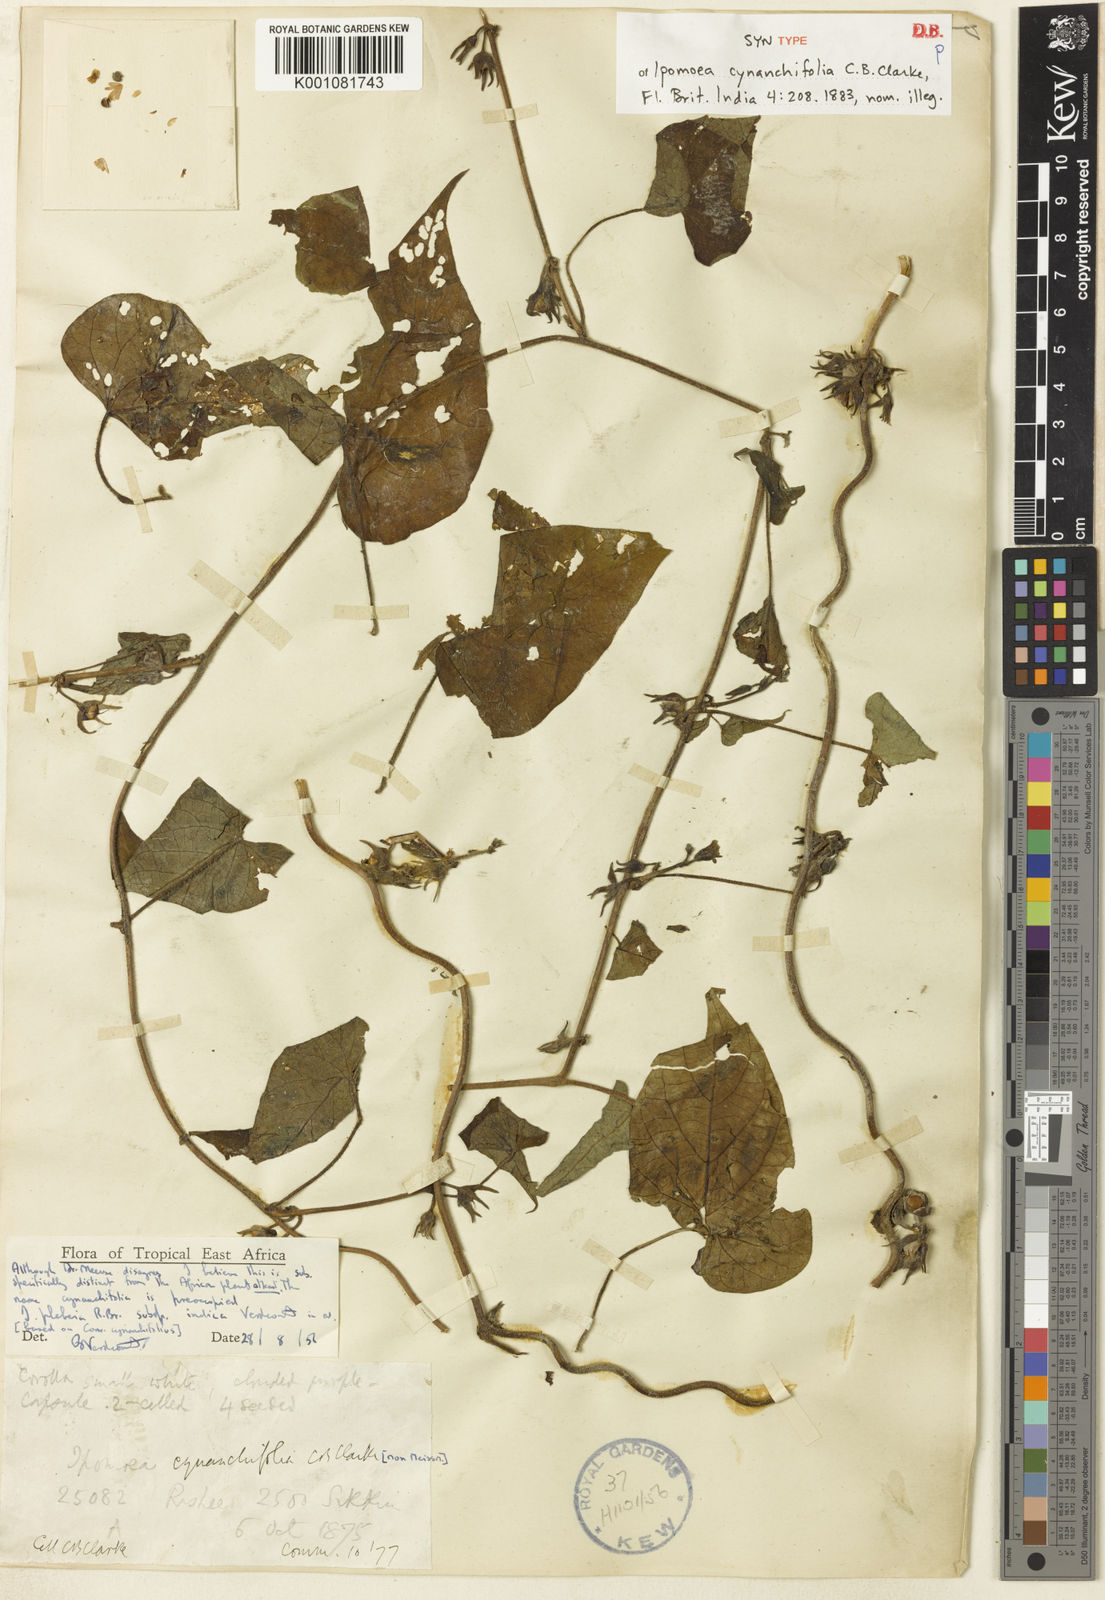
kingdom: Plantae
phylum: Tracheophyta
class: Magnoliopsida
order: Solanales
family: Convolvulaceae
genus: Ipomoea
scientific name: Ipomoea biflora
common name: Bellvine
